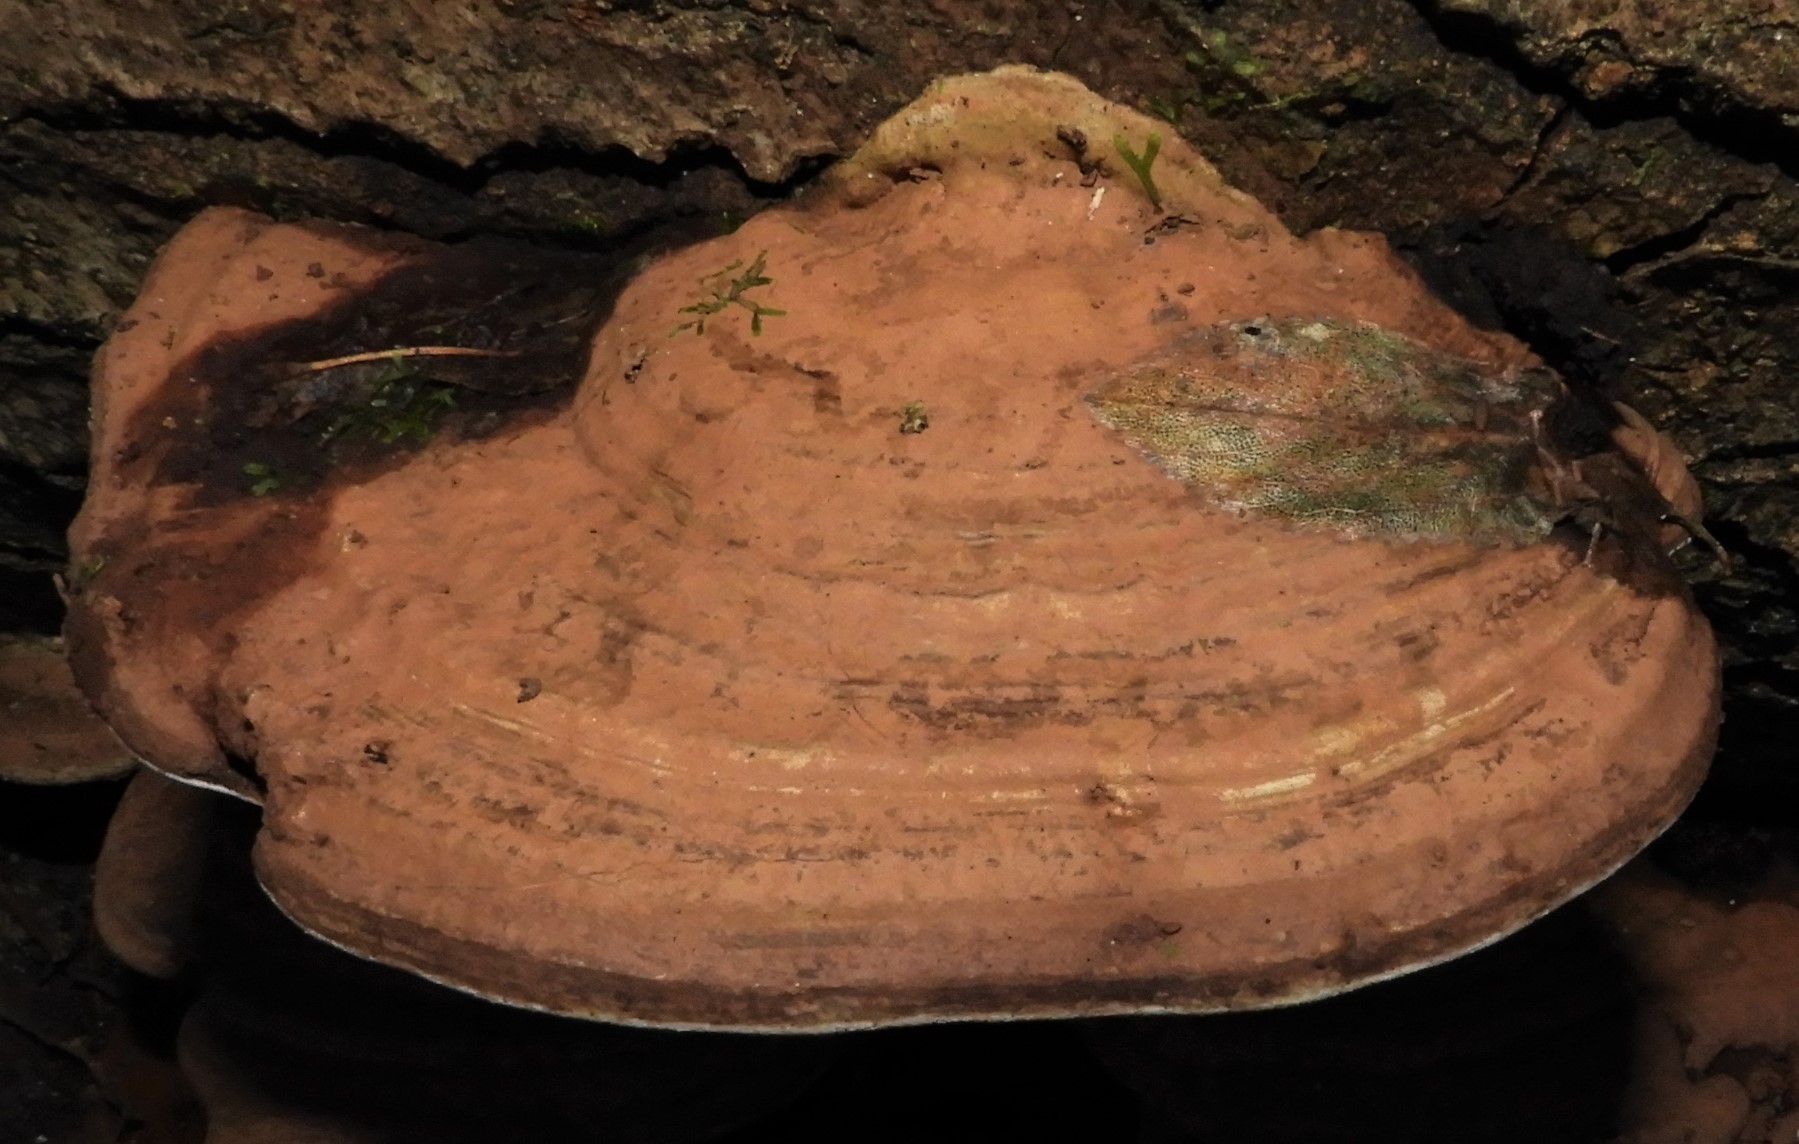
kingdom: Fungi
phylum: Basidiomycota
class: Agaricomycetes
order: Polyporales
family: Polyporaceae
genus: Ganoderma
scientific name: Ganoderma applanatum
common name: flad lakporesvamp
